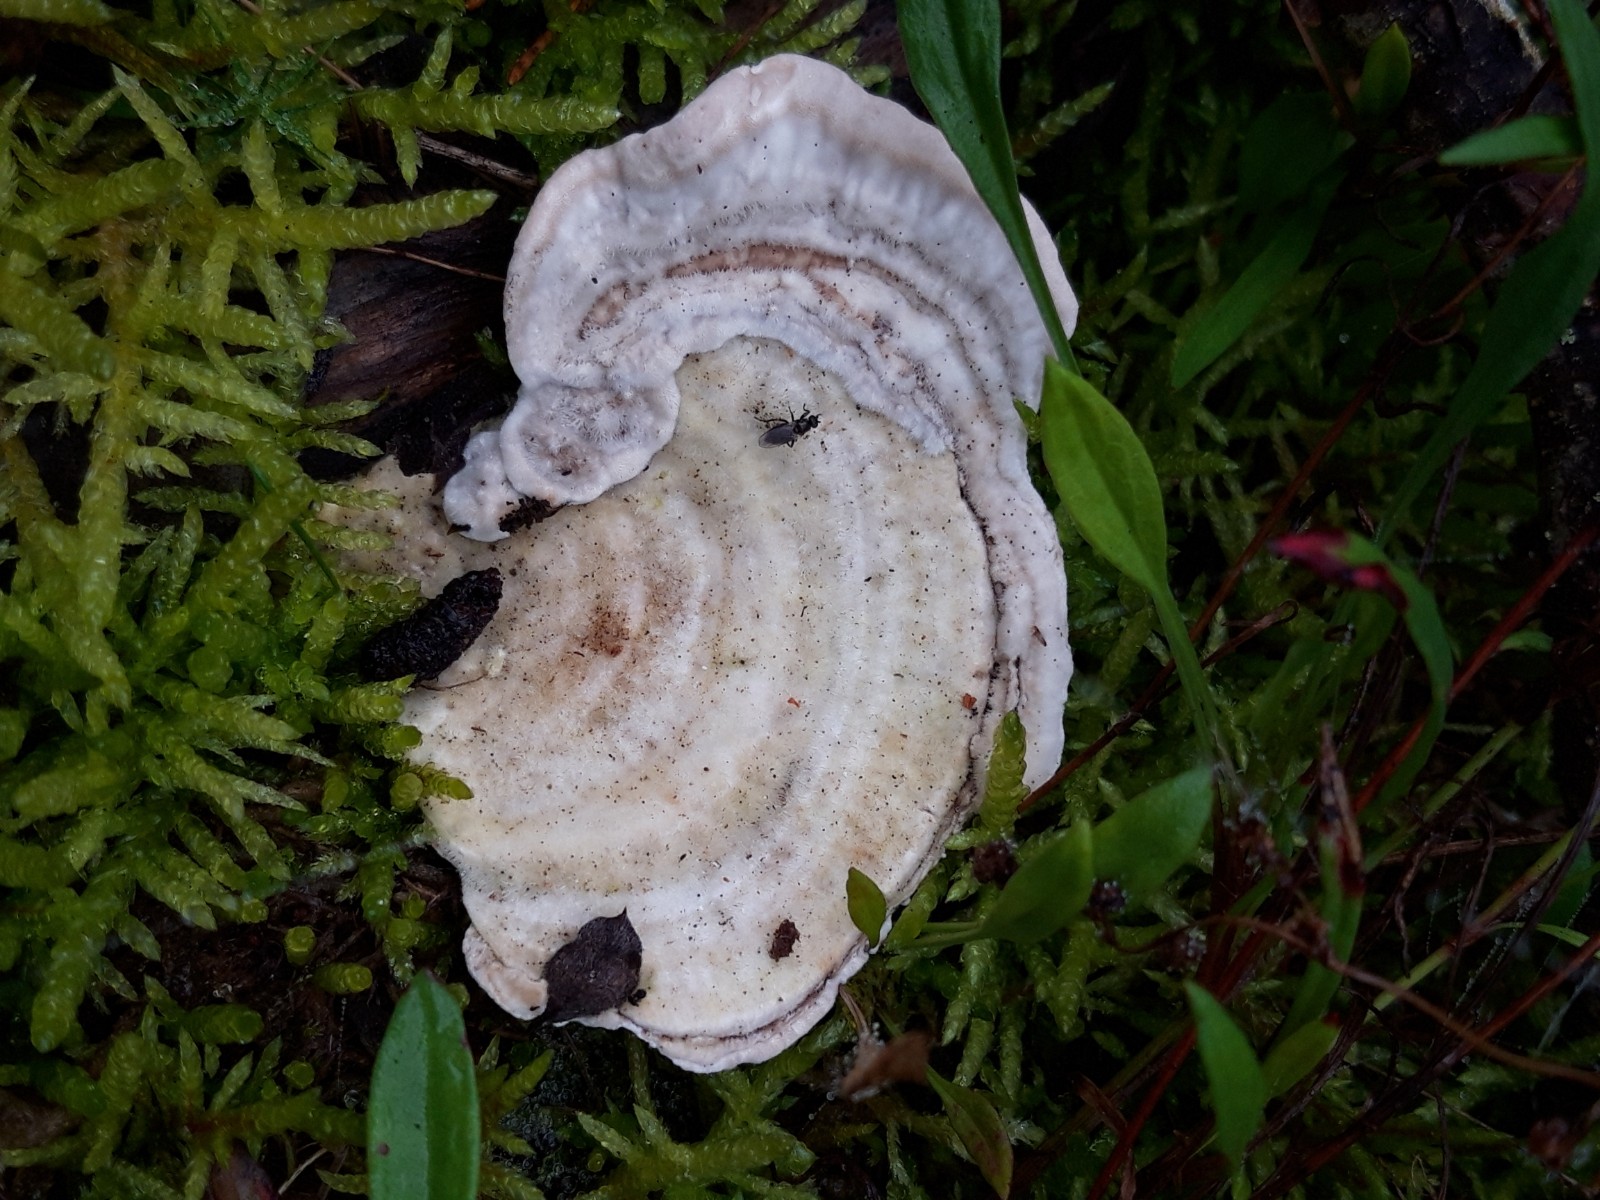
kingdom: Fungi
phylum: Basidiomycota
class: Agaricomycetes
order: Polyporales
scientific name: Polyporales
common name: poresvampordenen
